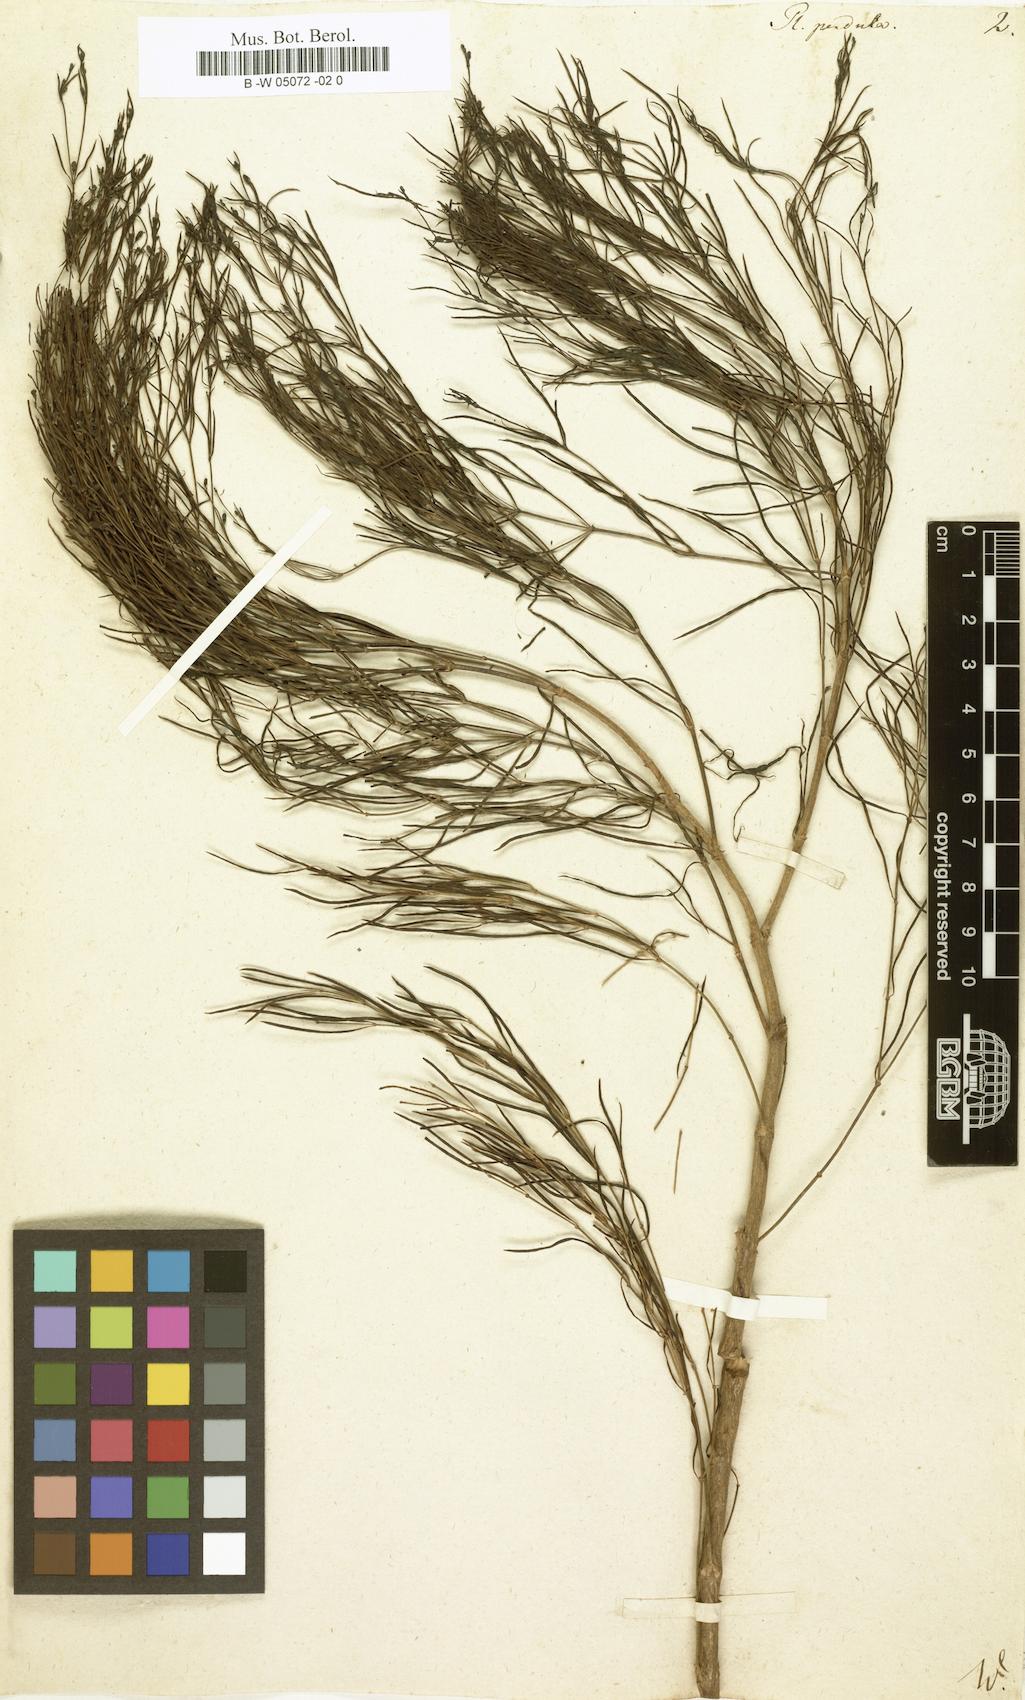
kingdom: Plantae
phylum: Tracheophyta
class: Magnoliopsida
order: Gentianales
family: Rubiaceae
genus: Plocama
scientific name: Plocama pendula
